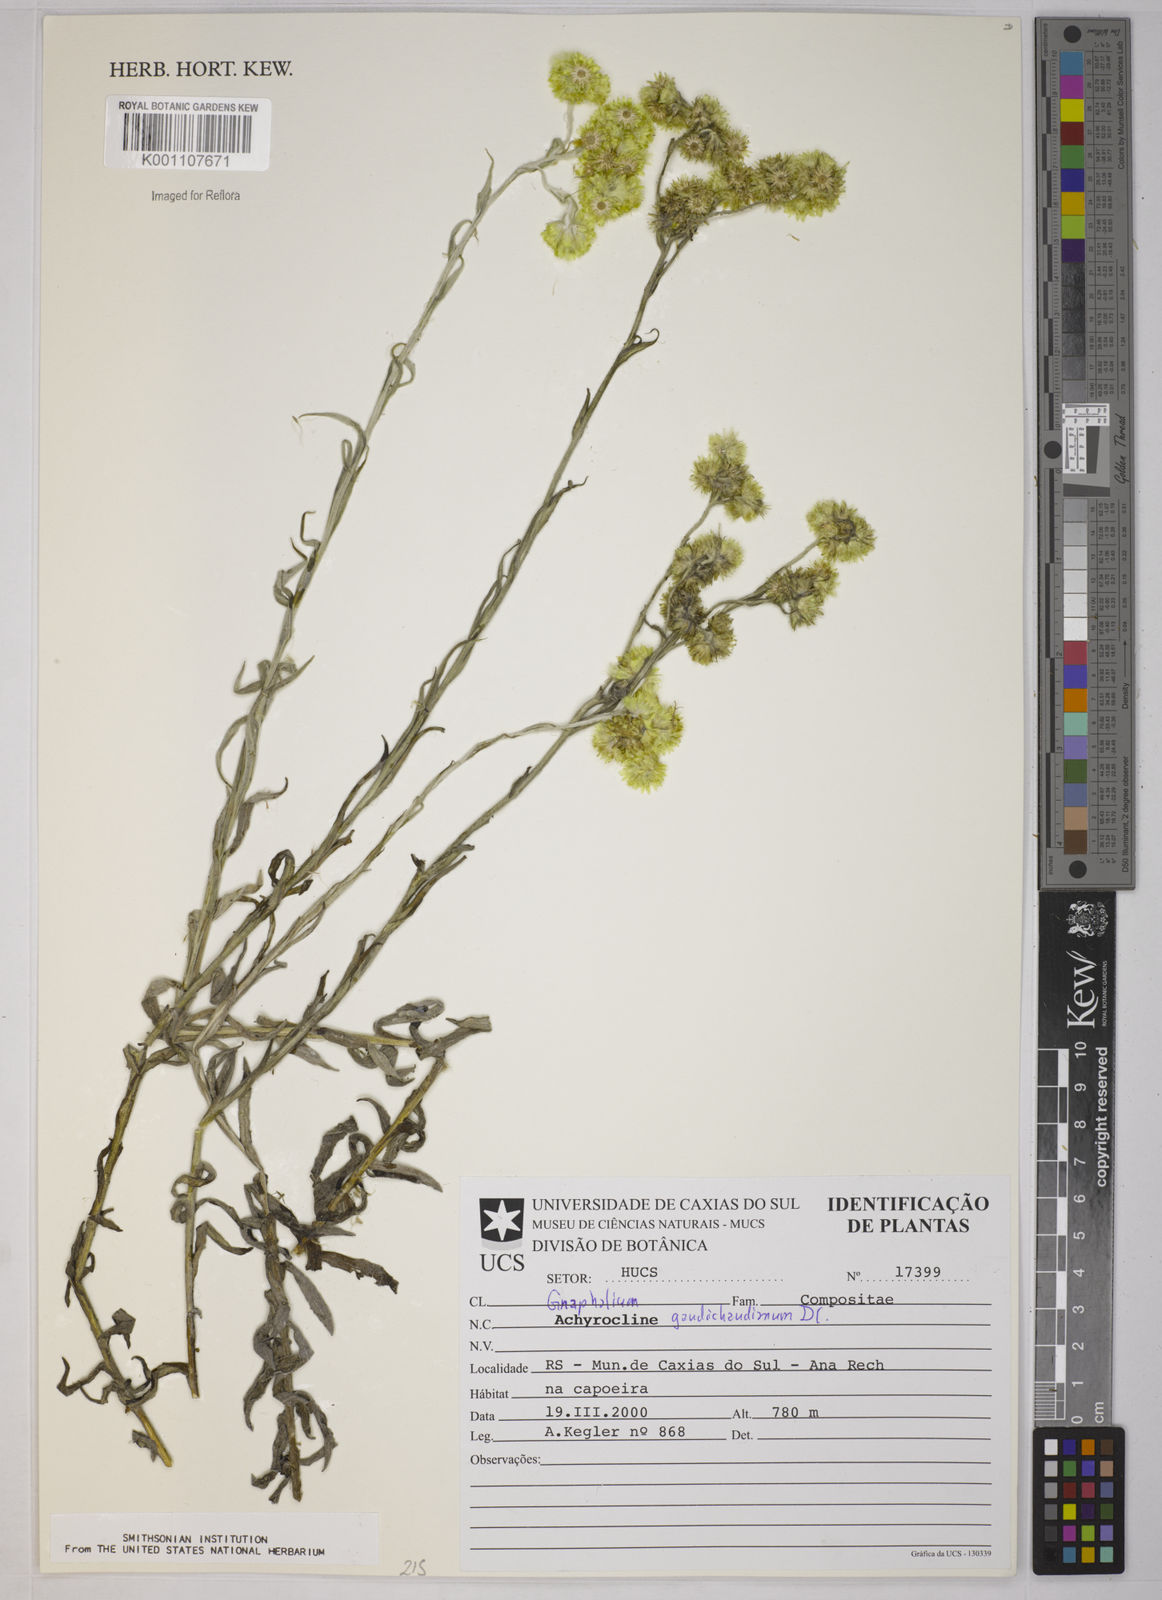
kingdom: Plantae
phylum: Tracheophyta
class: Magnoliopsida
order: Asterales
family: Asteraceae
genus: Pseudognaphalium
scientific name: Pseudognaphalium gaudichaudianum
